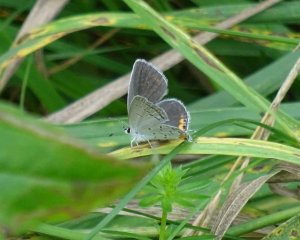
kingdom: Animalia
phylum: Arthropoda
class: Insecta
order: Lepidoptera
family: Lycaenidae
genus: Elkalyce
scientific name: Elkalyce comyntas
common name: Eastern Tailed-Blue
